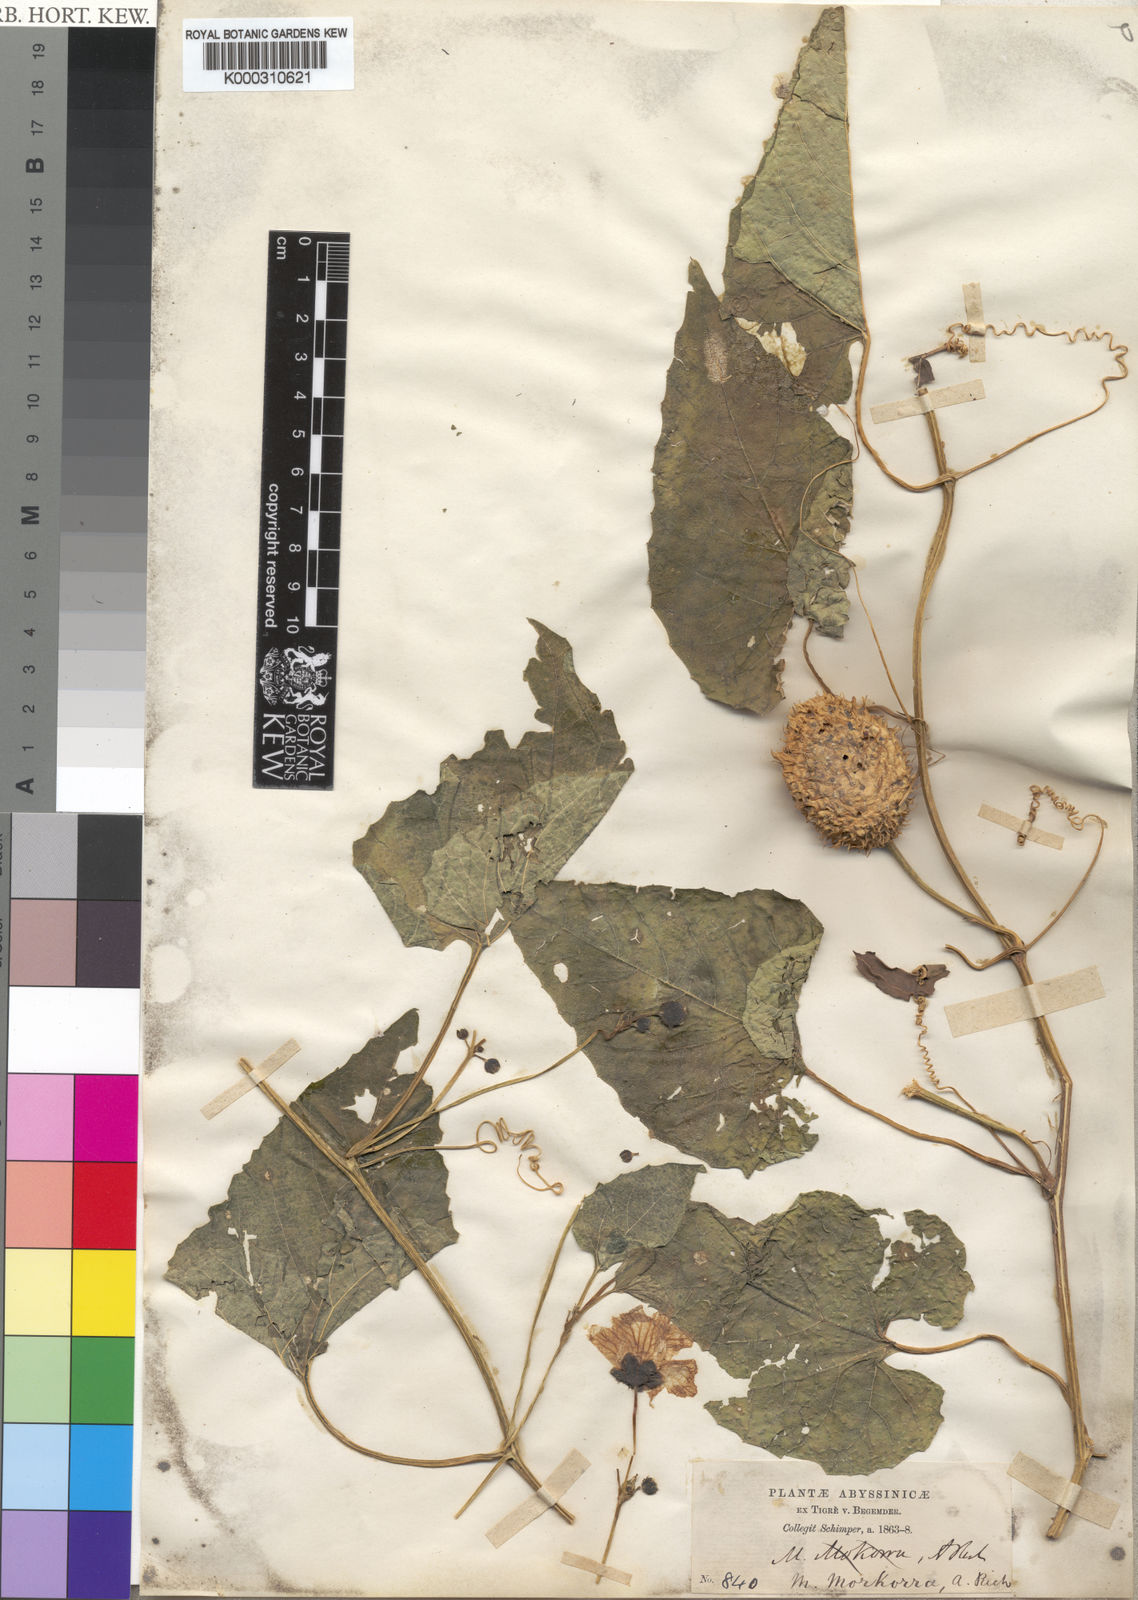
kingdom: Plantae
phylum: Tracheophyta
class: Magnoliopsida
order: Cucurbitales
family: Cucurbitaceae
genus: Momordica
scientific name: Momordica foetida
